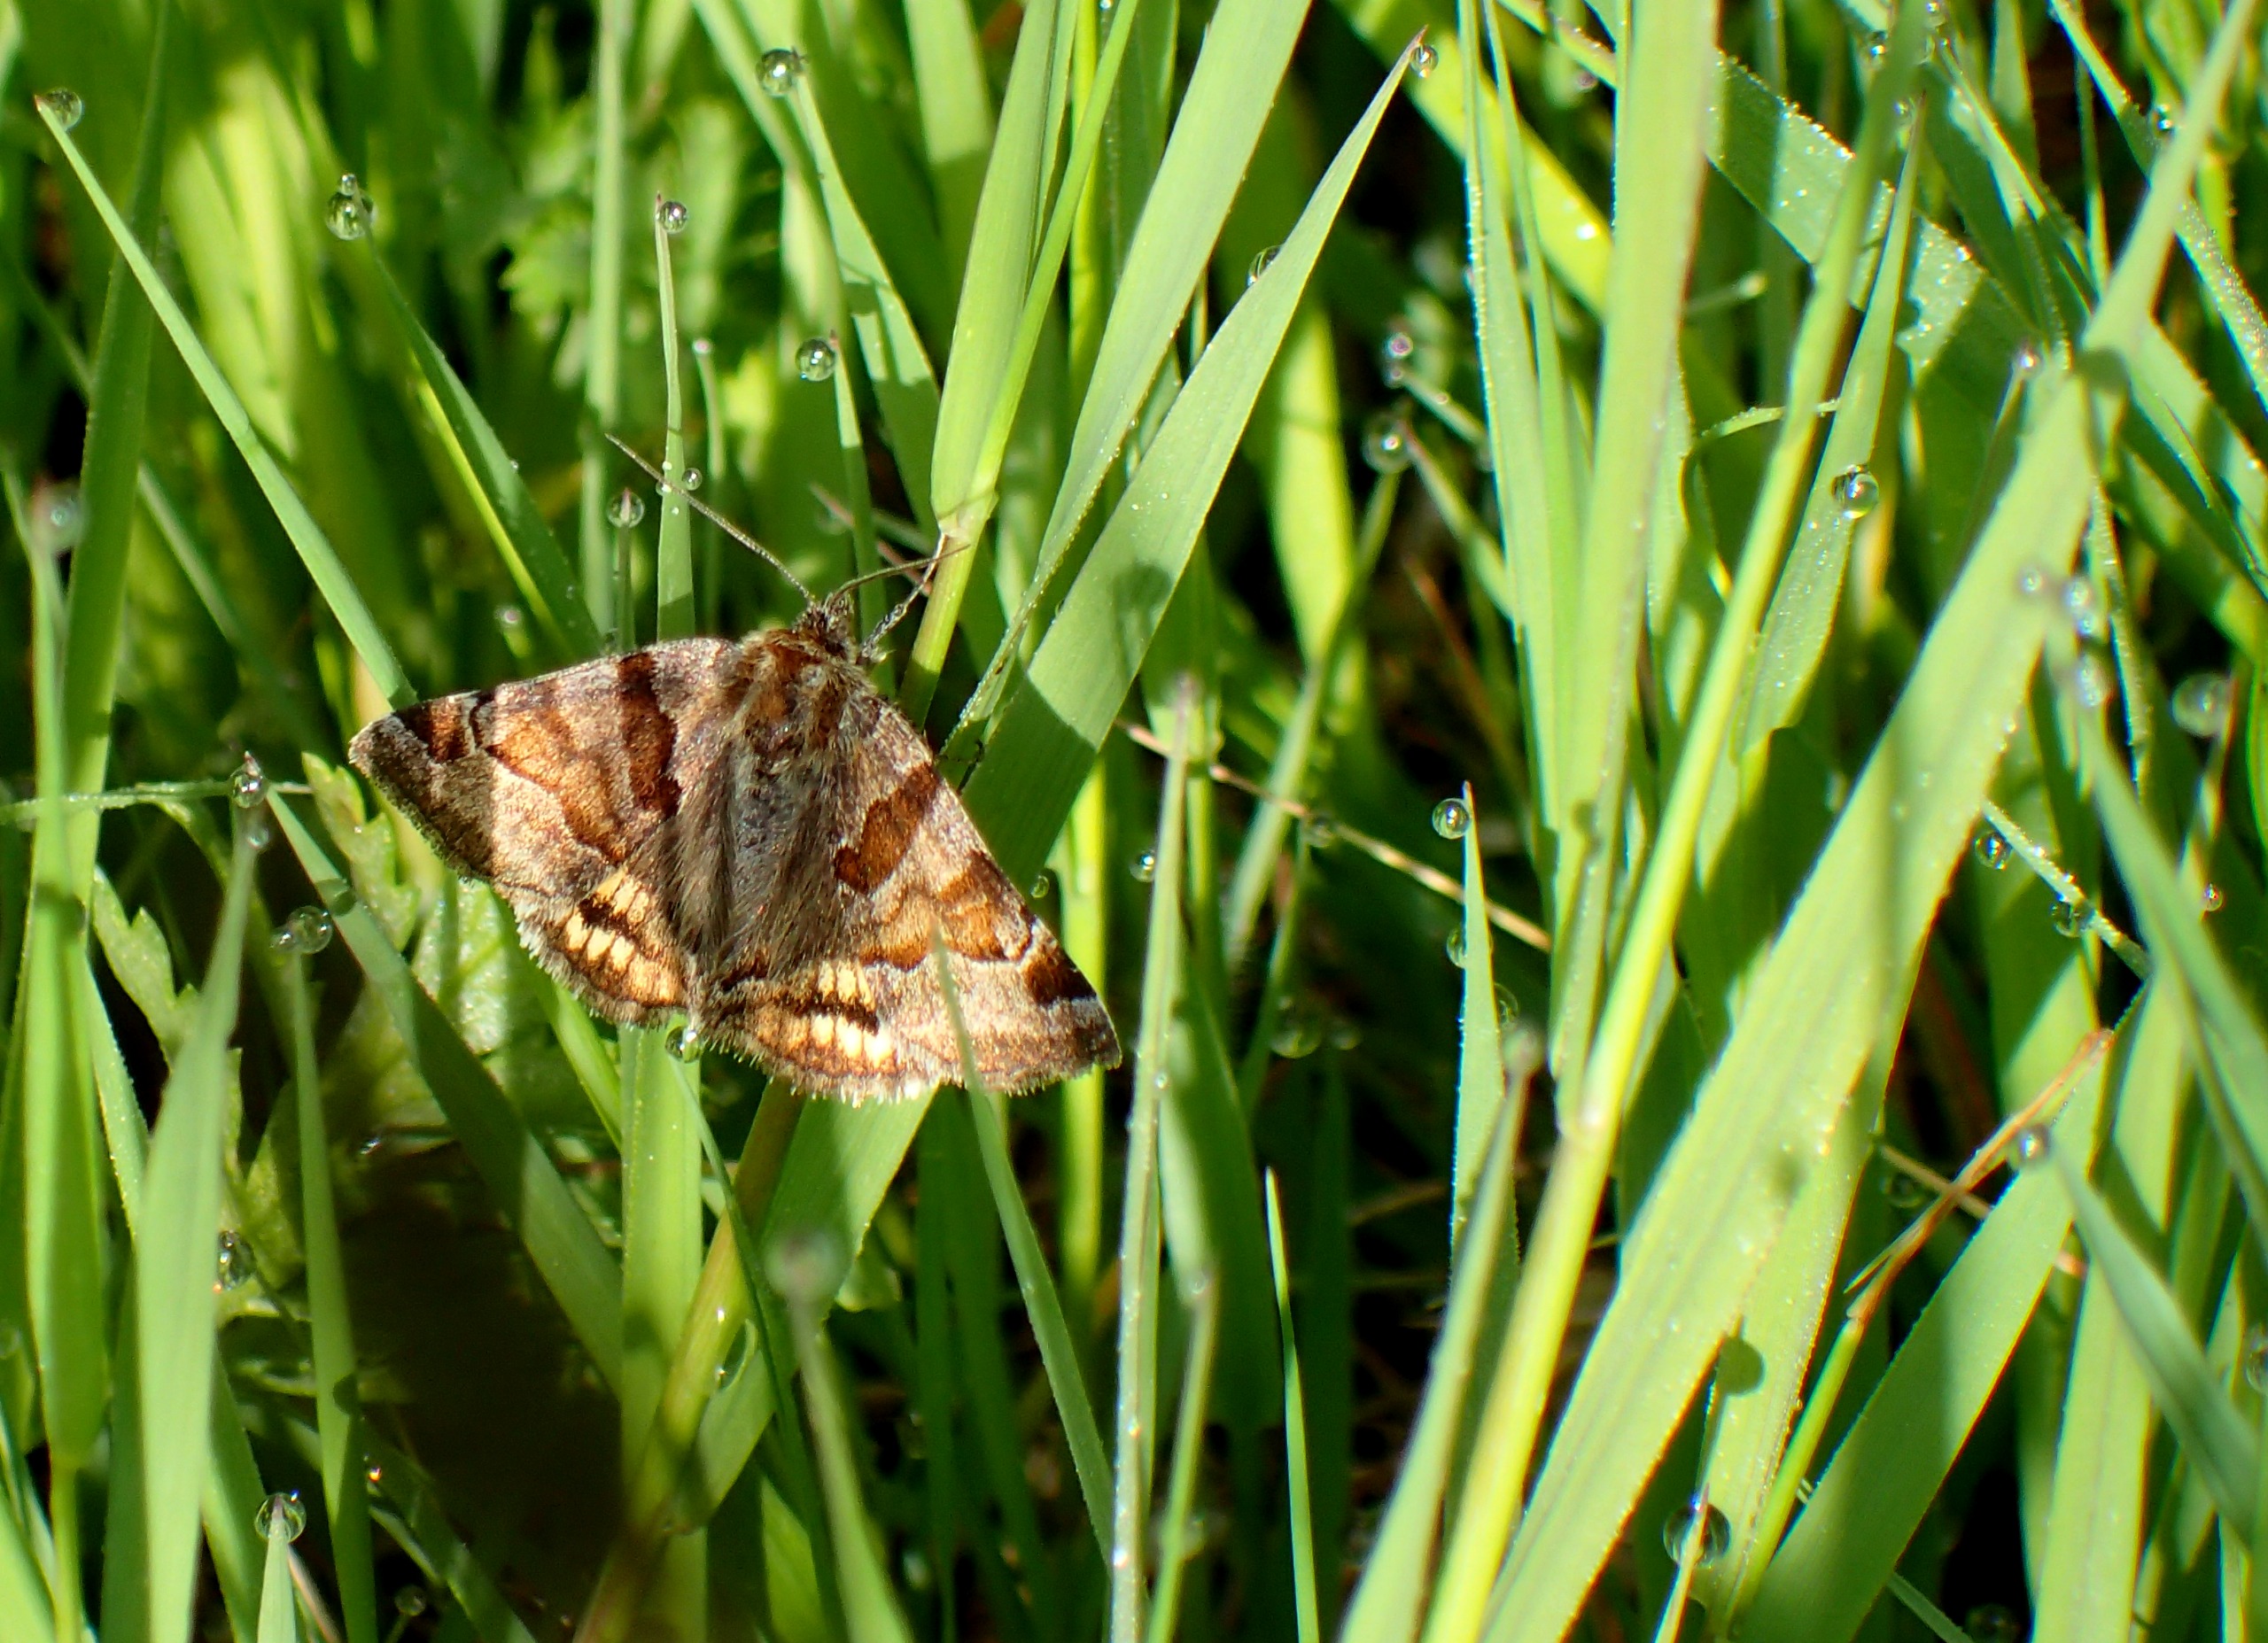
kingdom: Animalia
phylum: Arthropoda
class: Insecta
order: Lepidoptera
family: Erebidae
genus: Euclidia
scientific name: Euclidia glyphica
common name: Brun kløverugle
